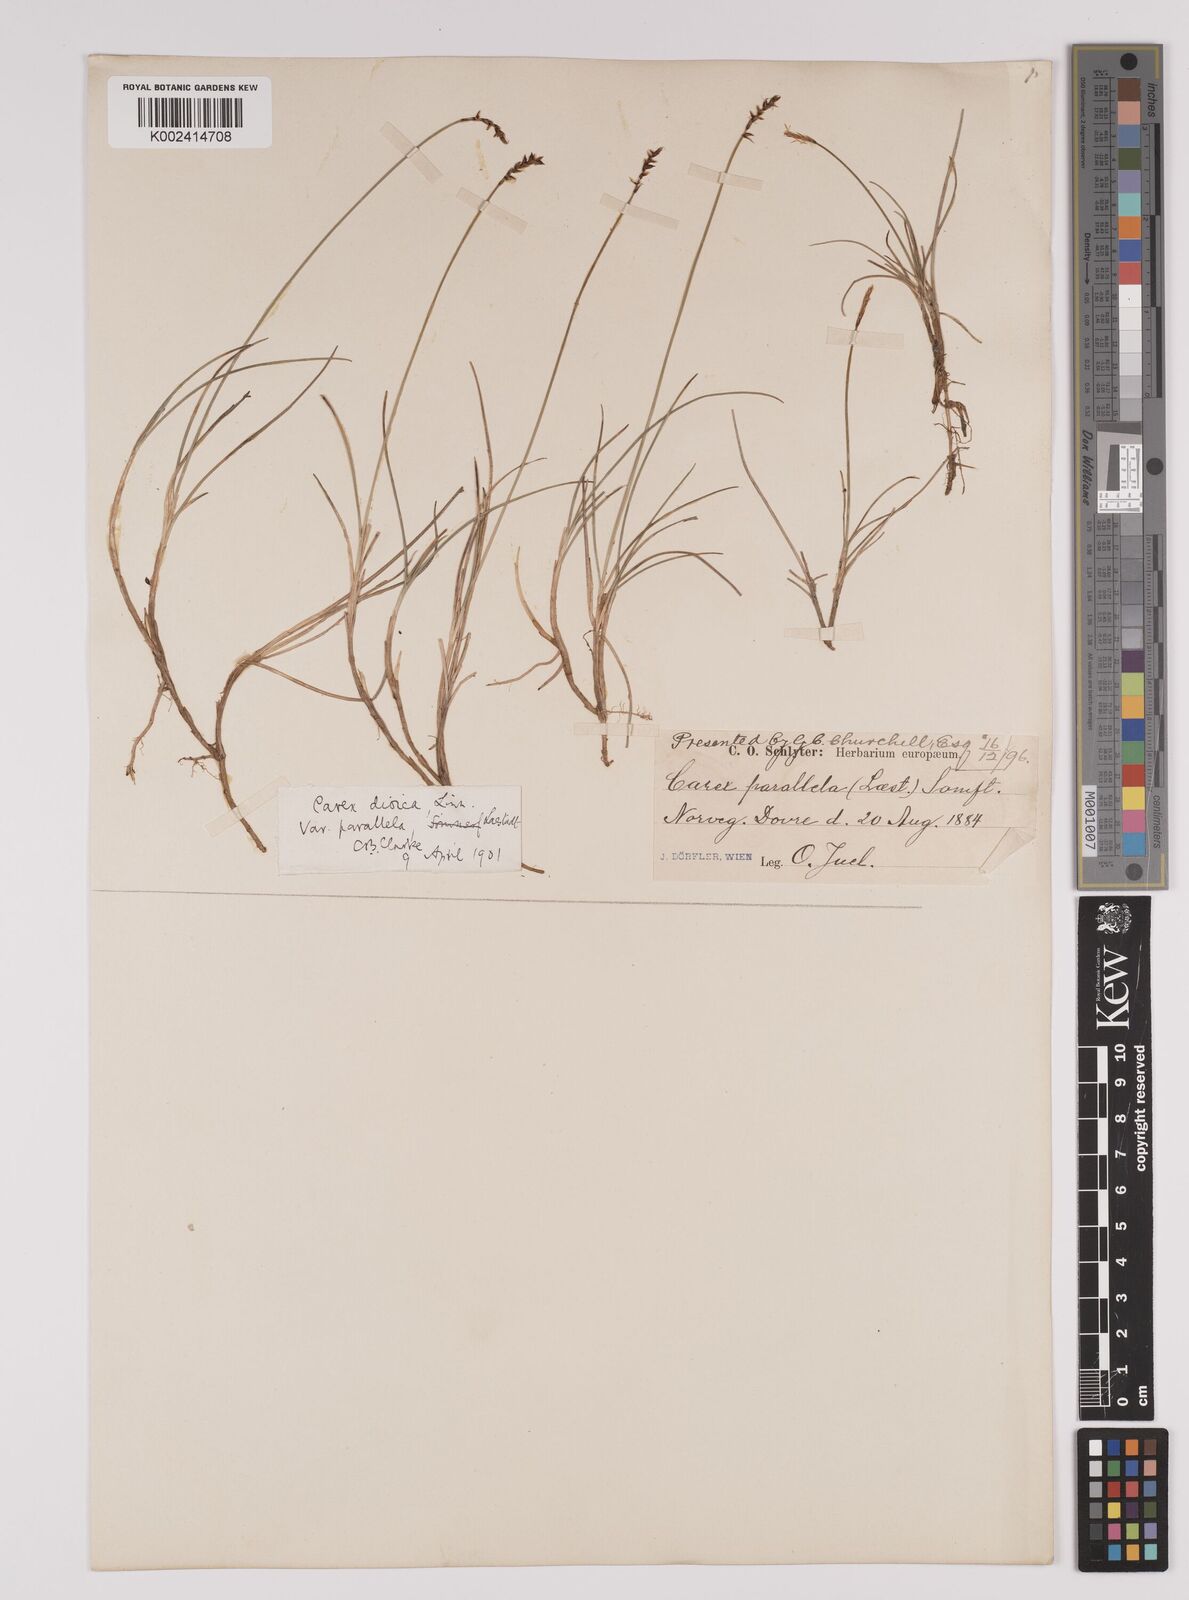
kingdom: Plantae
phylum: Tracheophyta
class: Liliopsida
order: Poales
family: Cyperaceae
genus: Carex
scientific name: Carex parallela
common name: Parallel sedge
